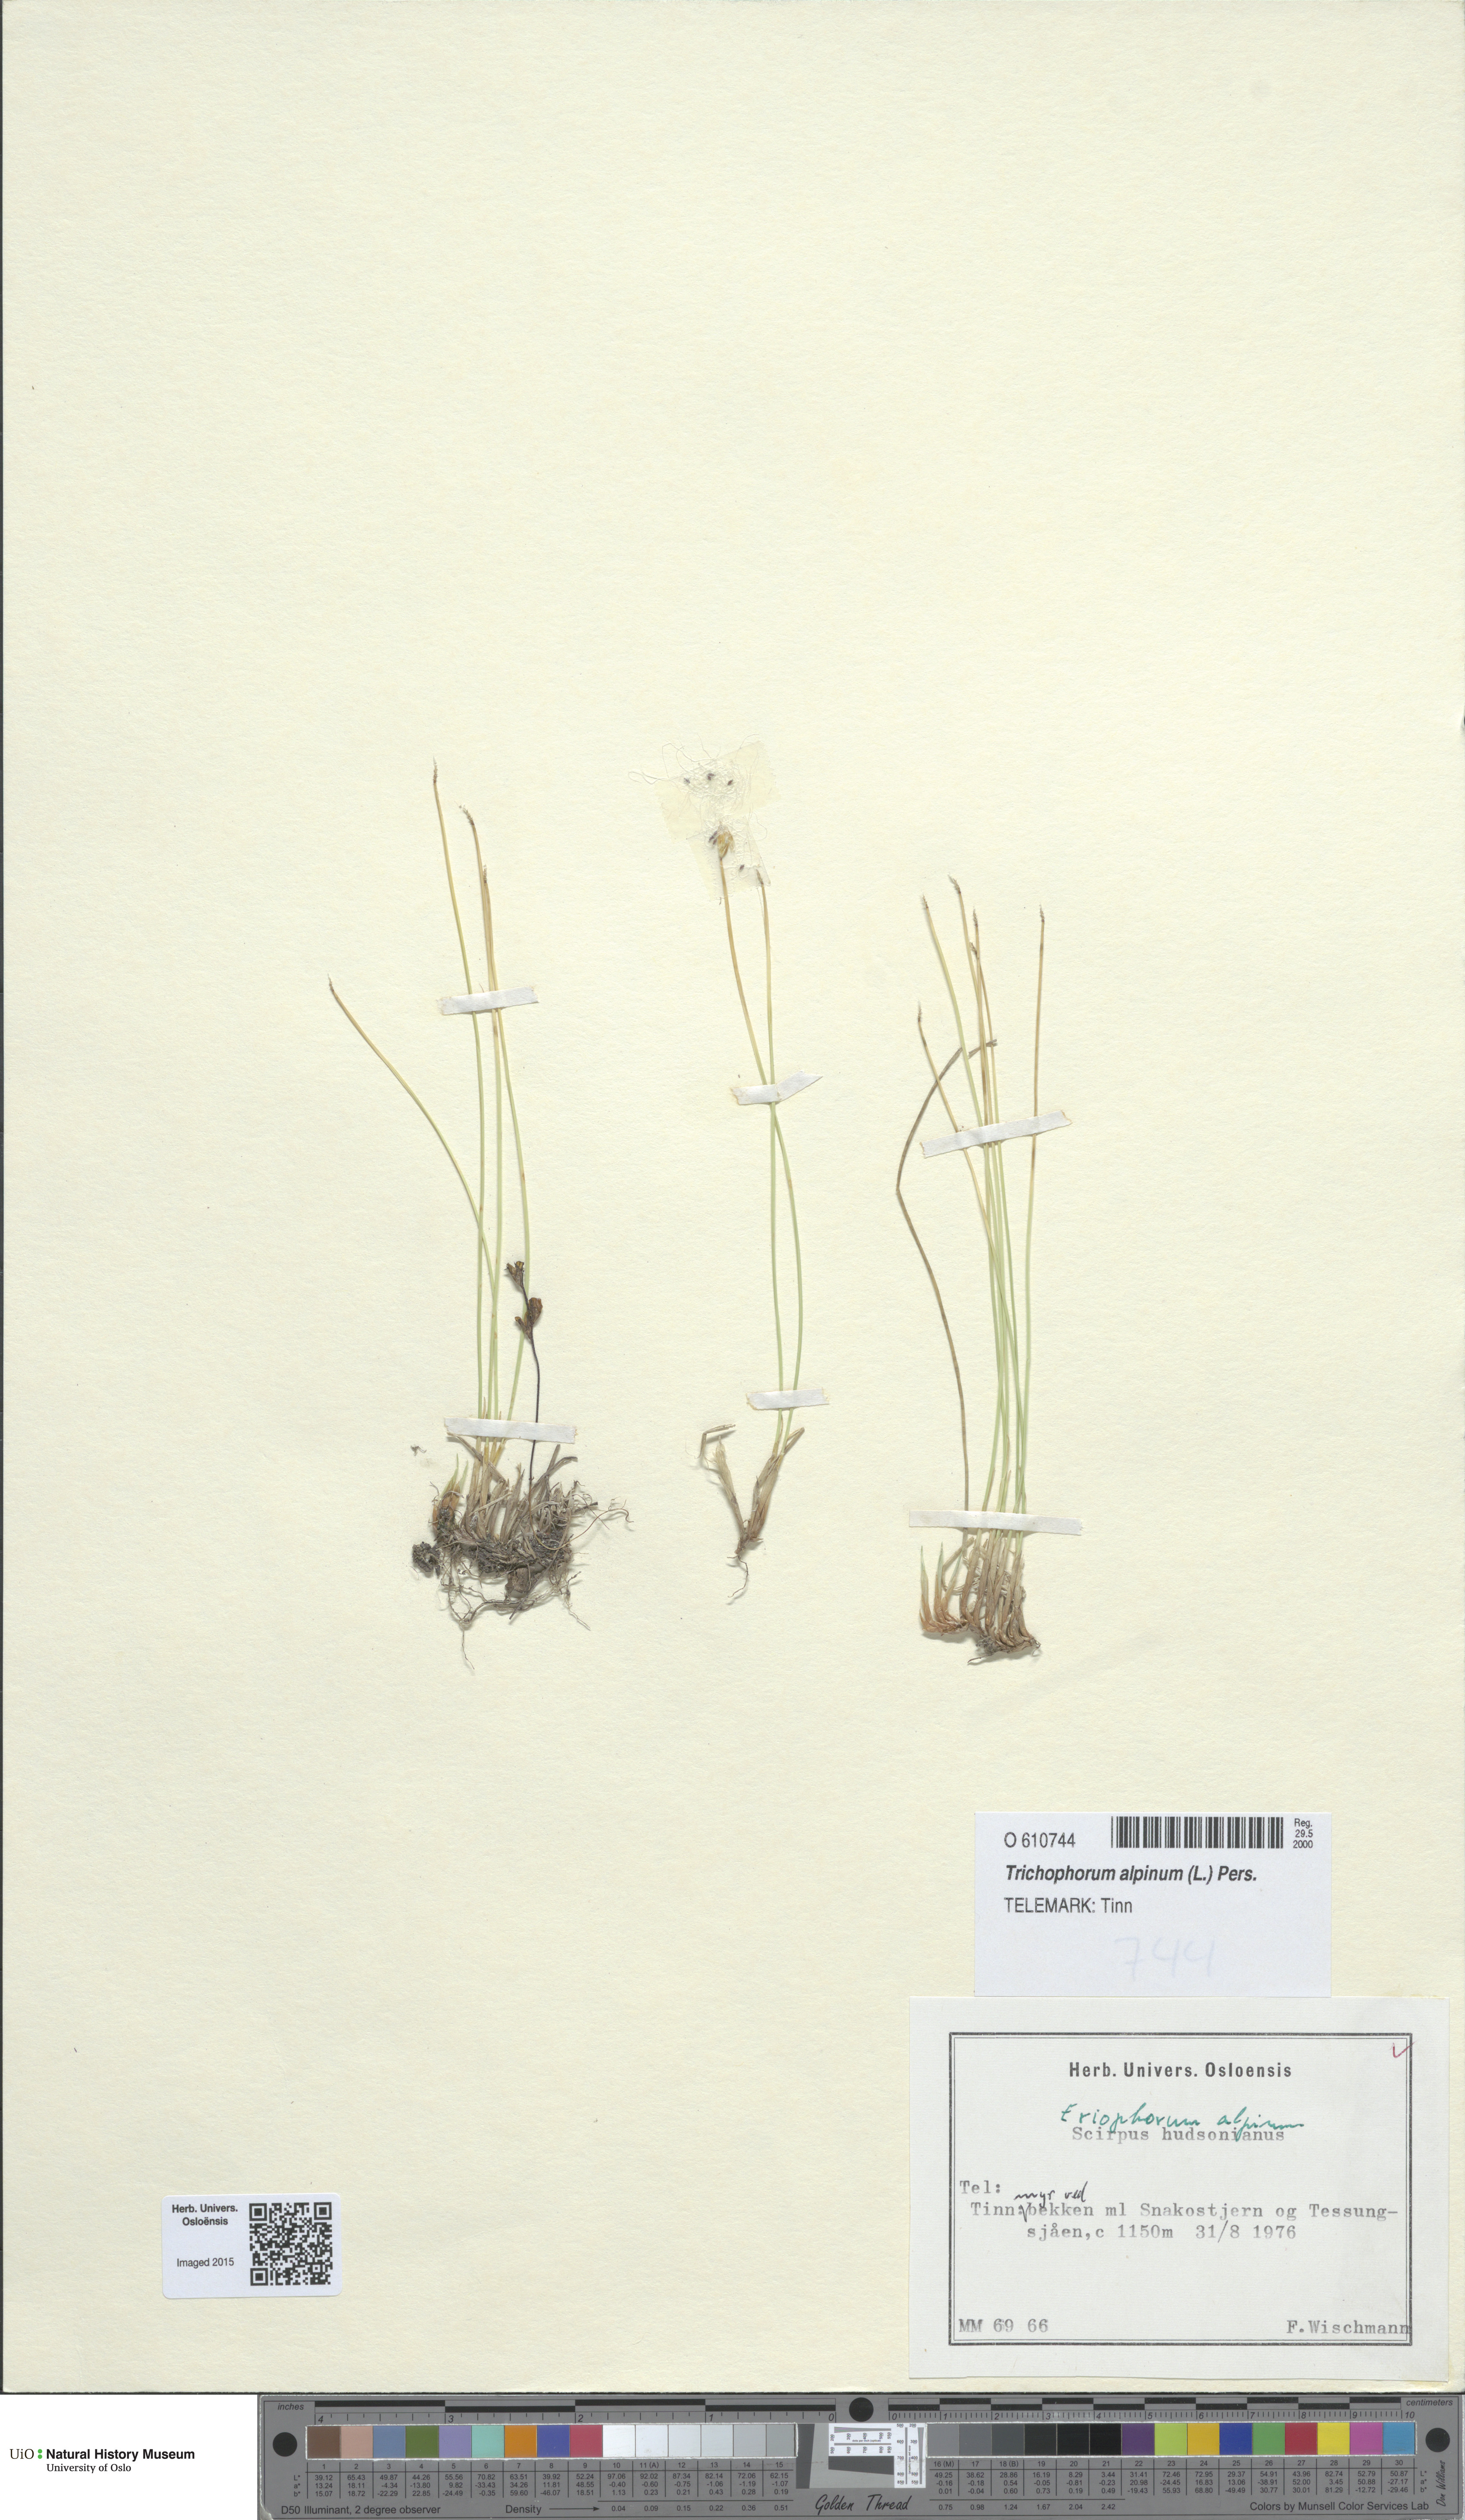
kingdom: Plantae
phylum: Tracheophyta
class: Liliopsida
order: Poales
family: Cyperaceae
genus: Trichophorum
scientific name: Trichophorum alpinum
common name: Alpine bulrush
